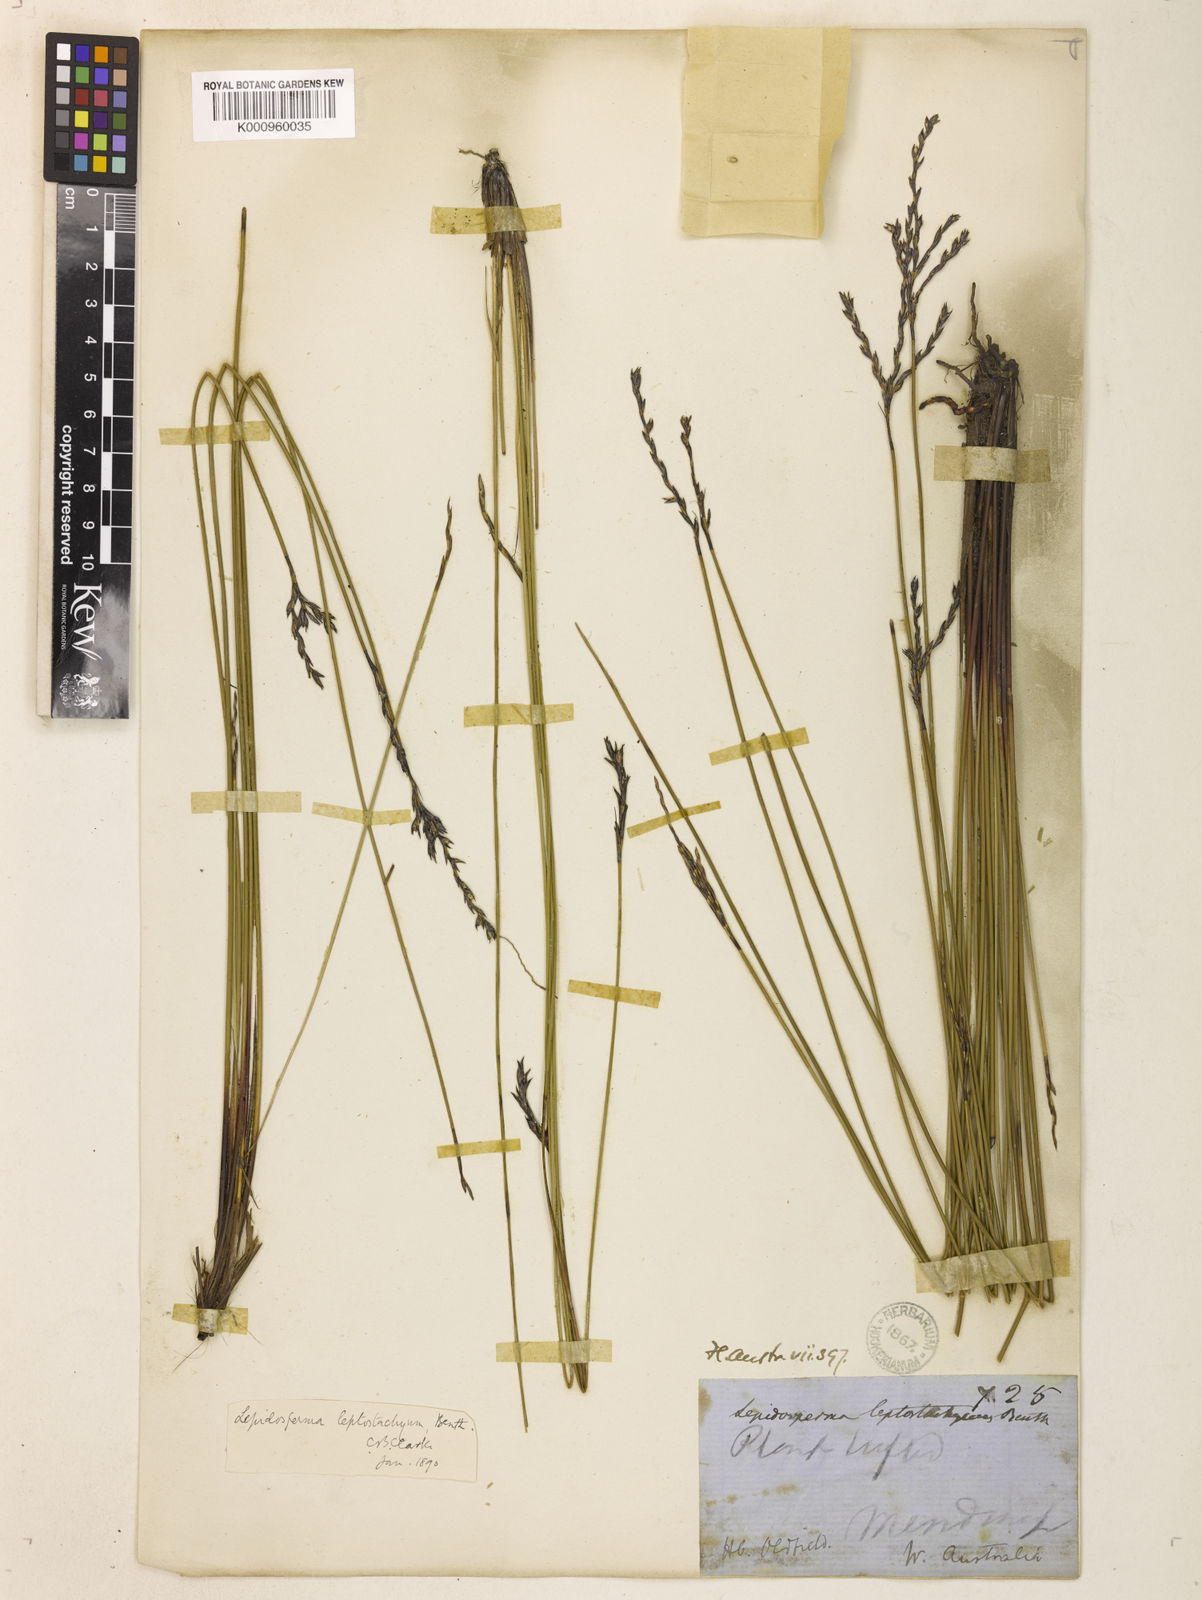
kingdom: Plantae
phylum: Tracheophyta
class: Liliopsida
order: Poales
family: Cyperaceae
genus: Lepidosperma
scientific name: Lepidosperma leptostachyum
